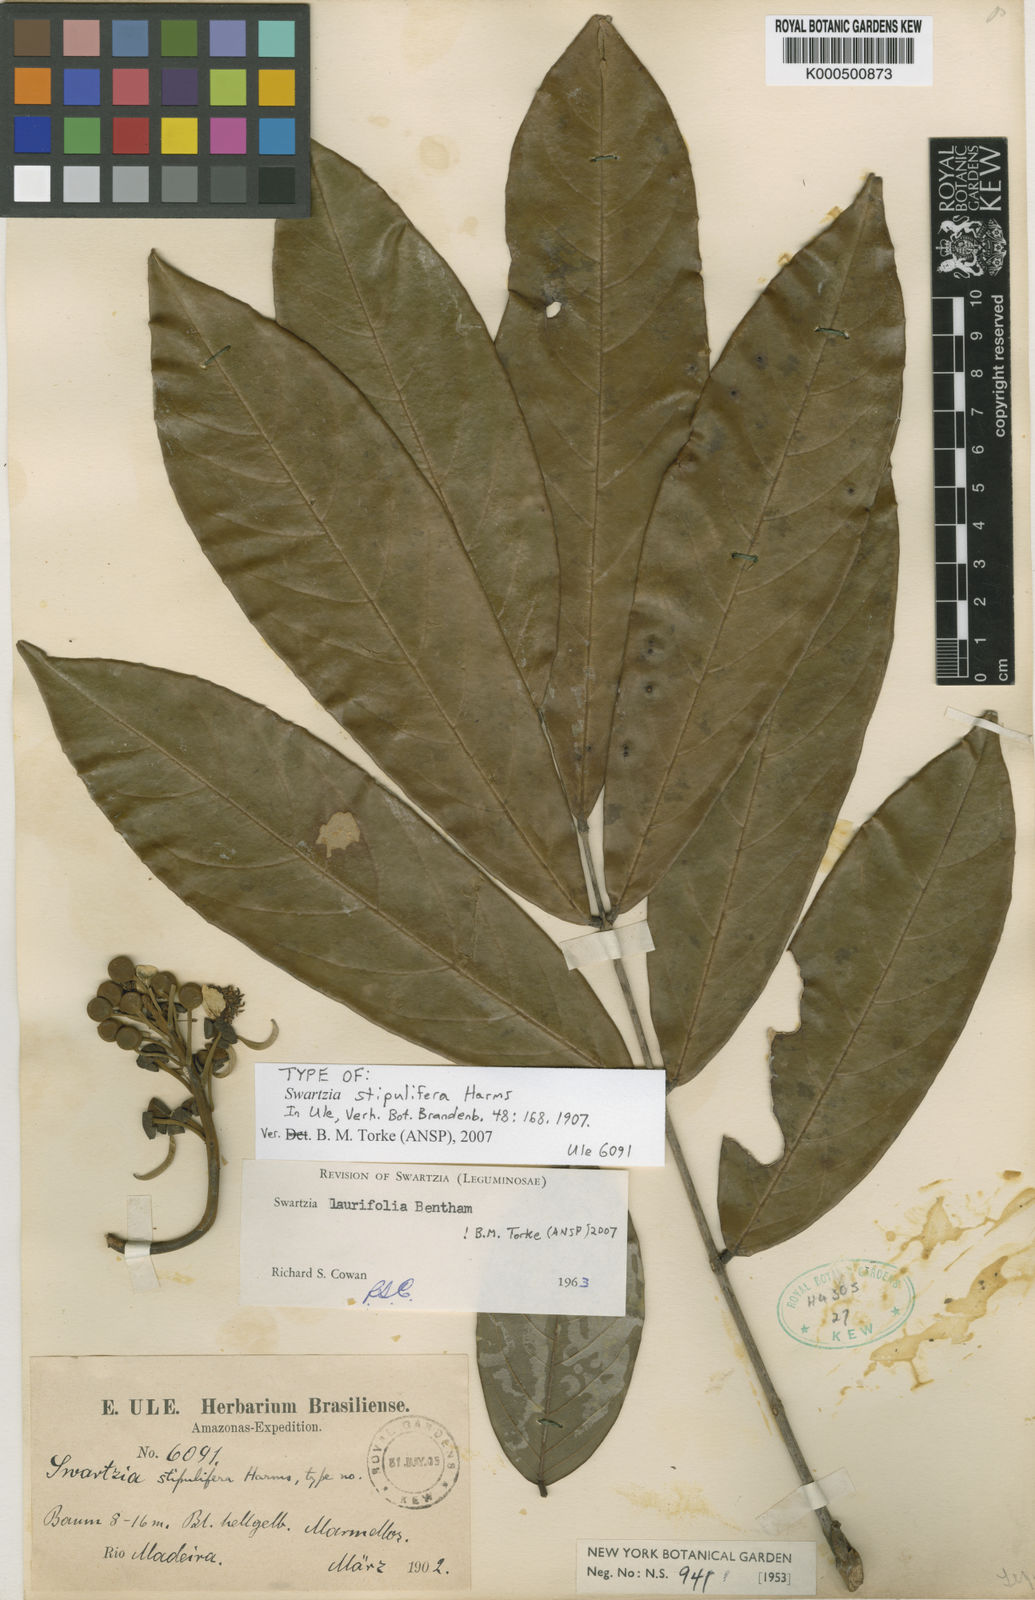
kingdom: Plantae
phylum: Tracheophyta
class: Magnoliopsida
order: Fabales
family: Fabaceae
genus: Swartzia
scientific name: Swartzia laurifolia
